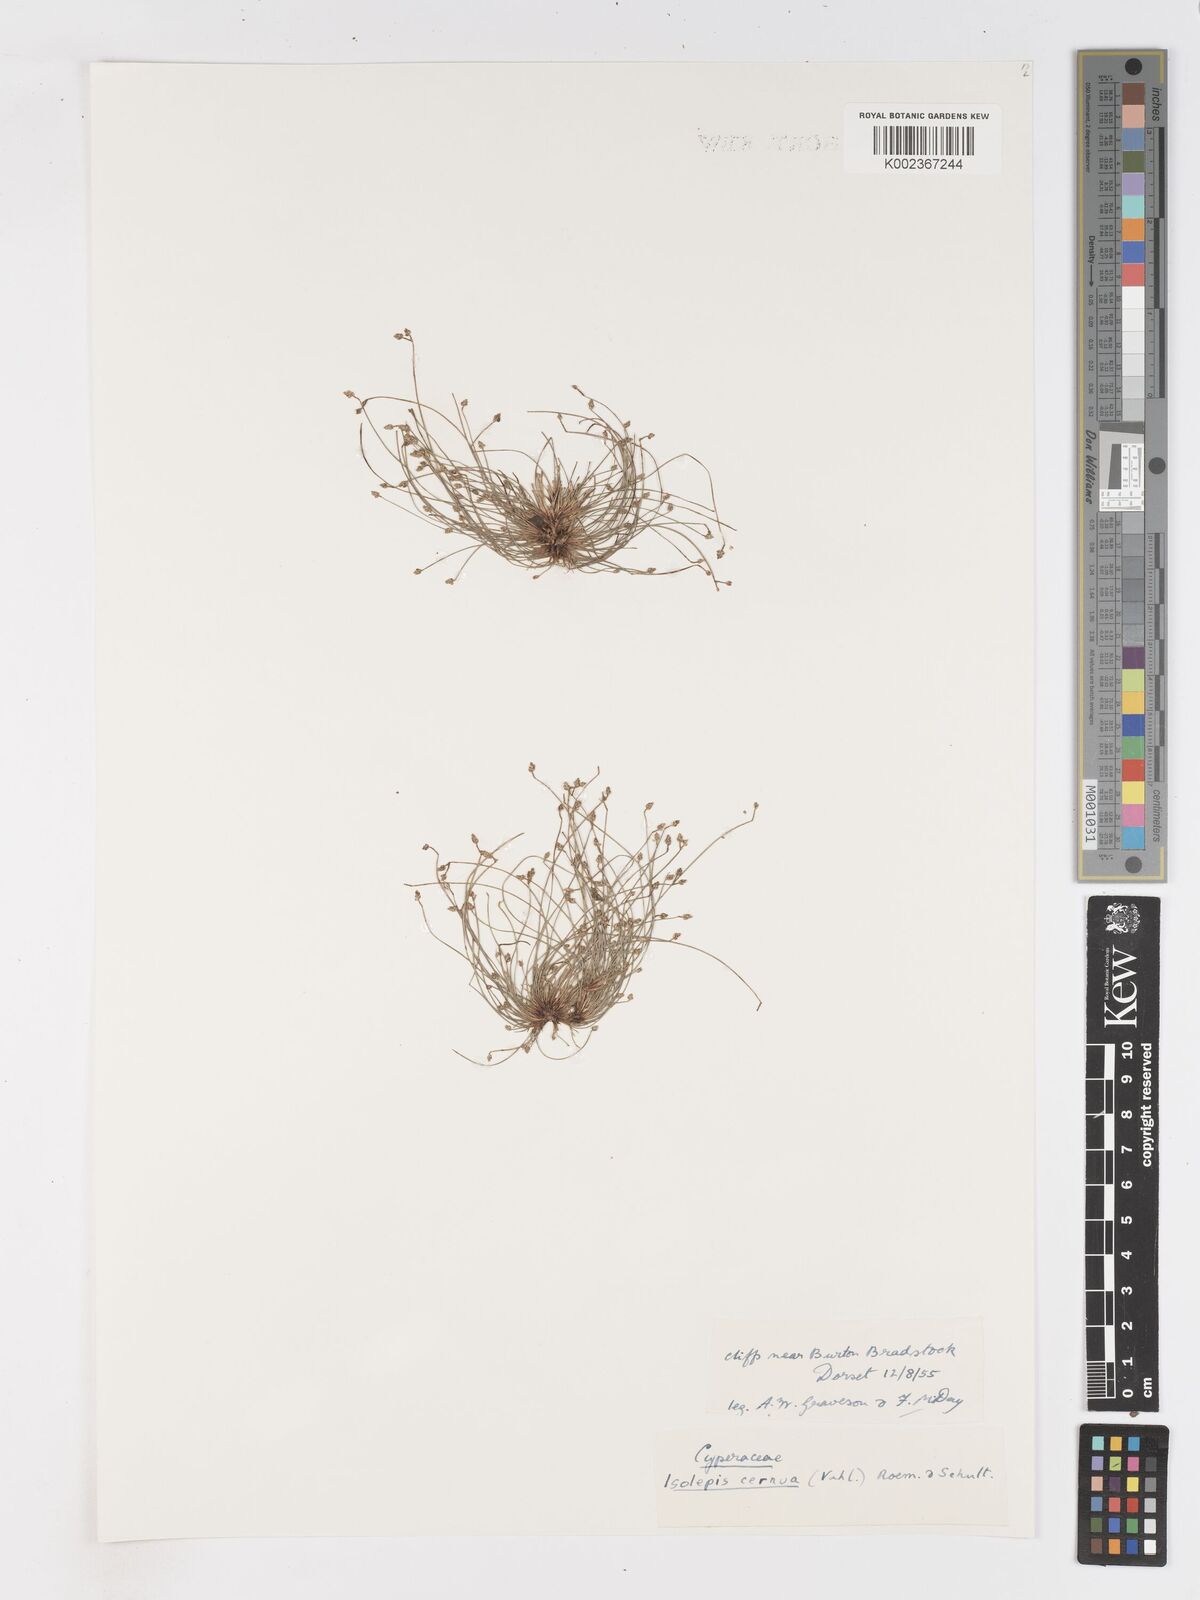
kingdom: Plantae
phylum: Tracheophyta
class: Liliopsida
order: Poales
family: Cyperaceae
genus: Isolepis
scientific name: Isolepis cernua
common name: Slender club-rush
